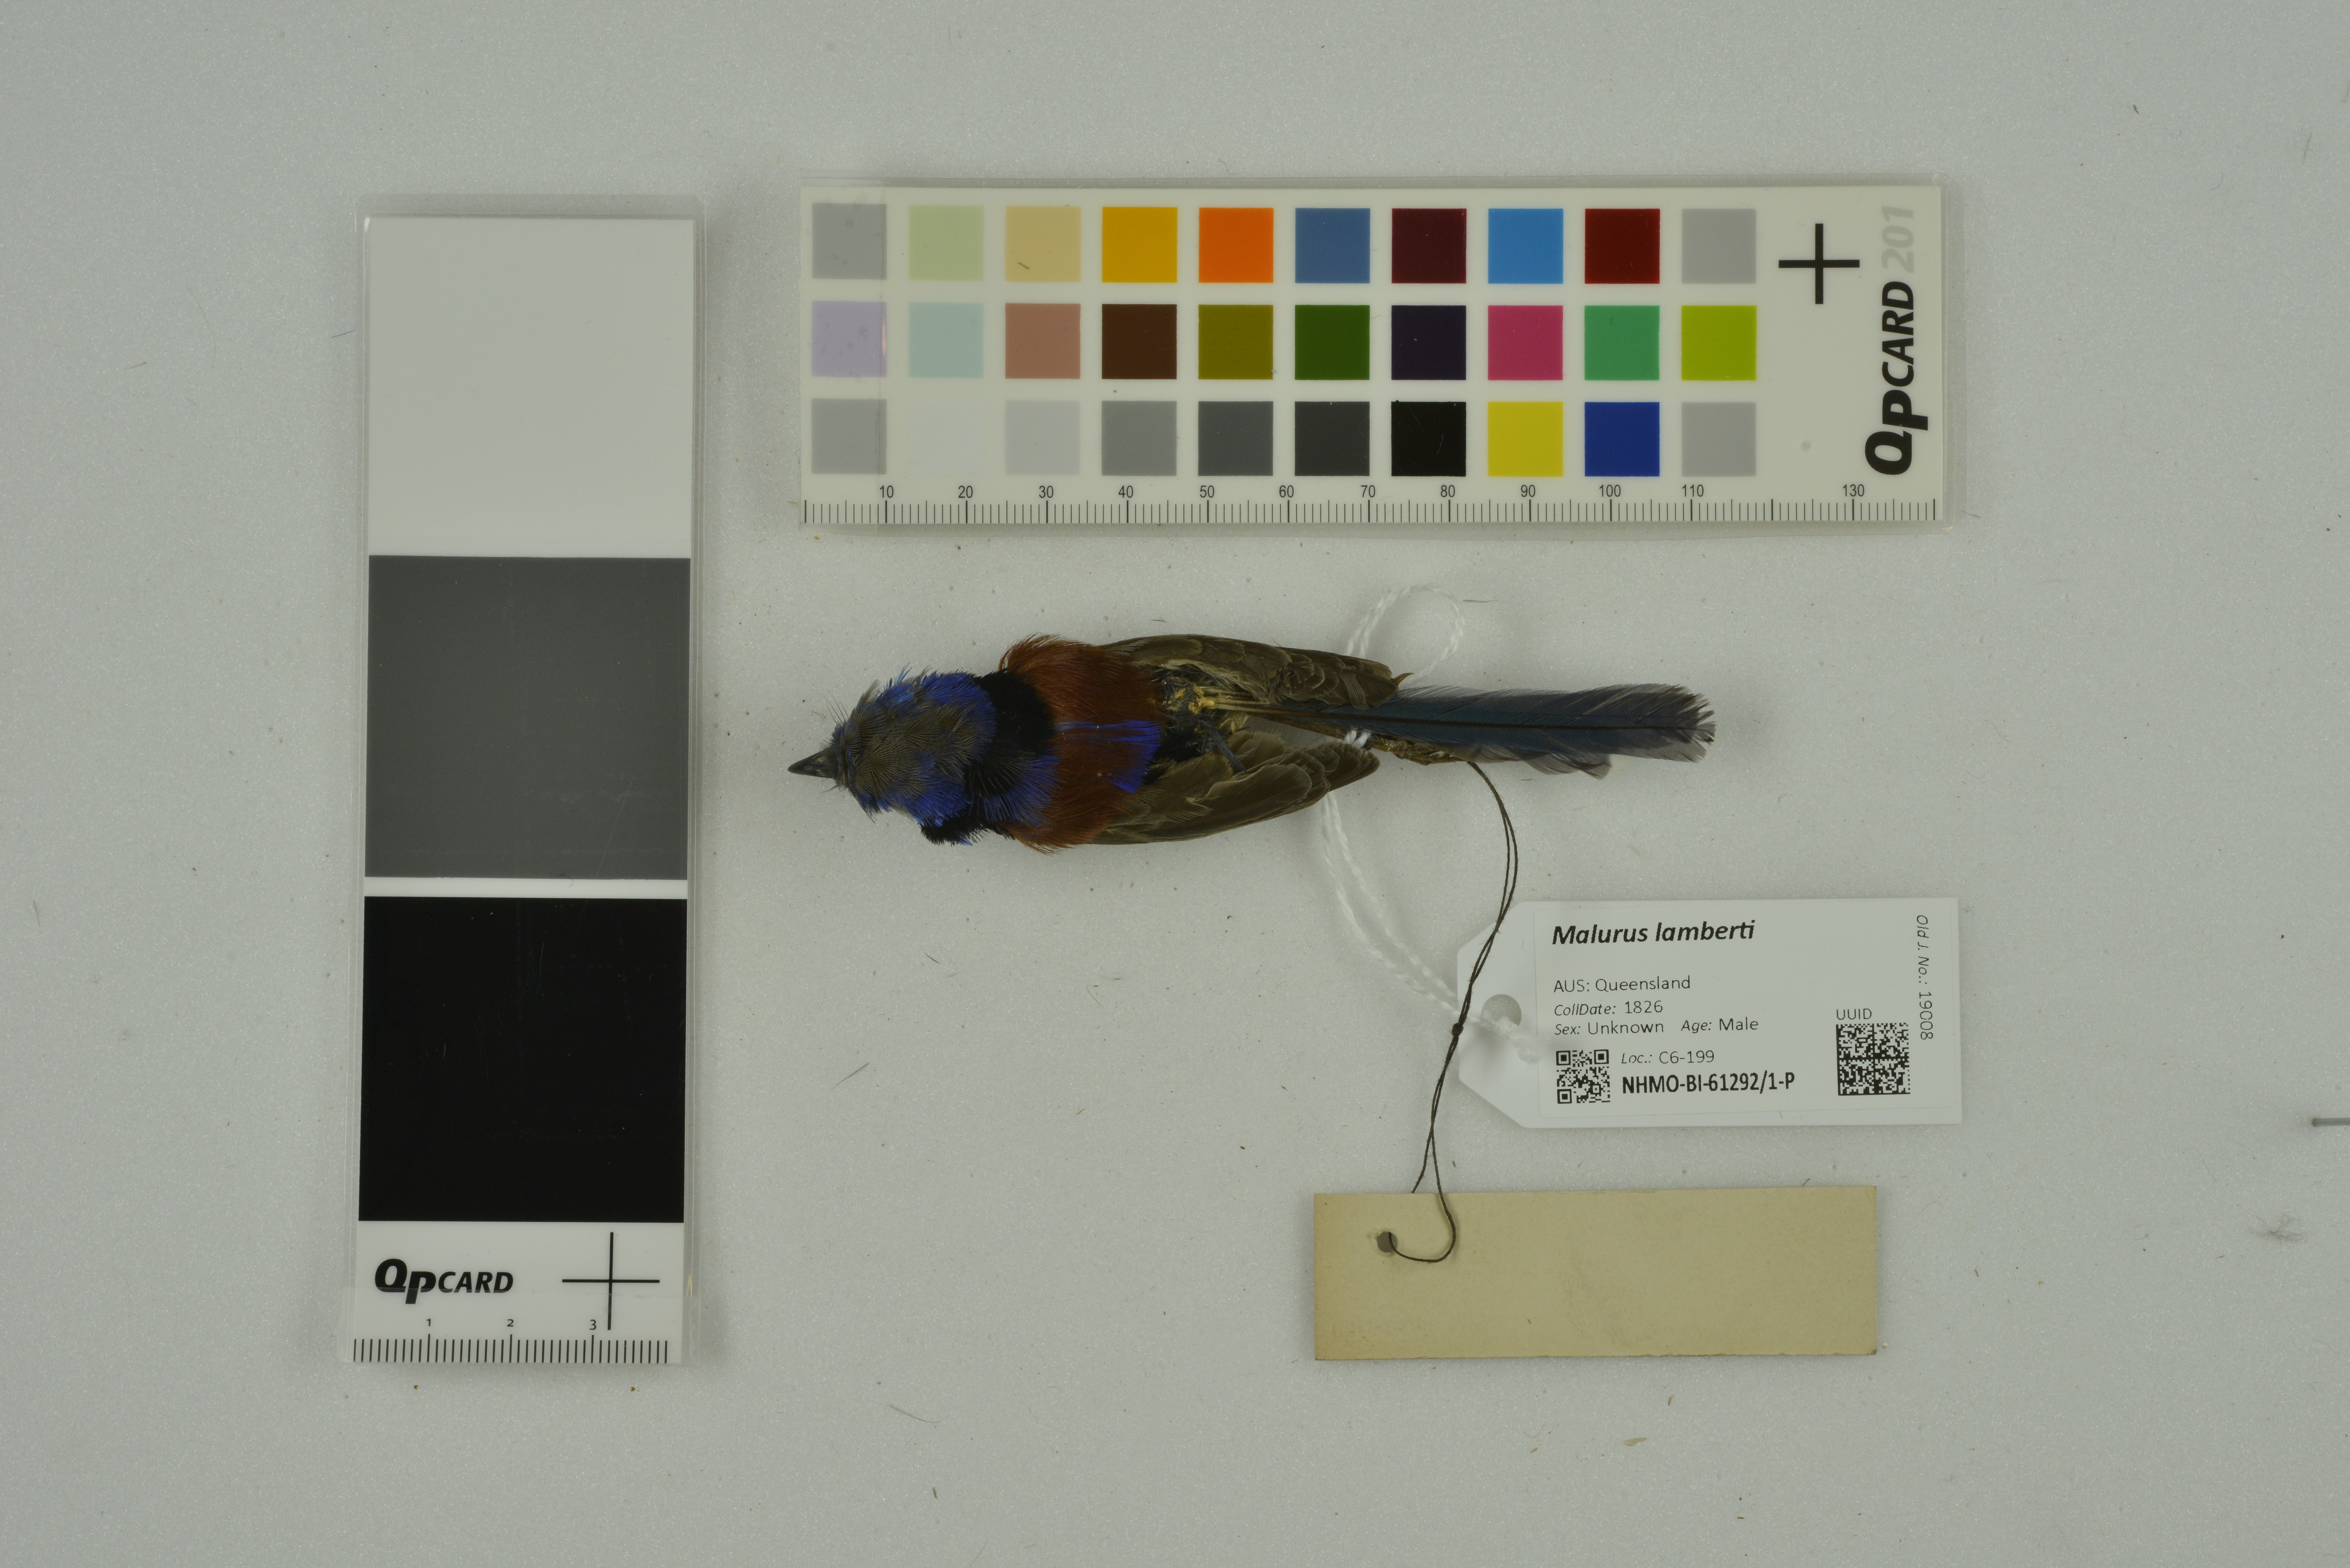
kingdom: Animalia
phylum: Chordata
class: Aves
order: Passeriformes
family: Maluridae
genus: Malurus
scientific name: Malurus lamberti
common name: Variegated fairywren
